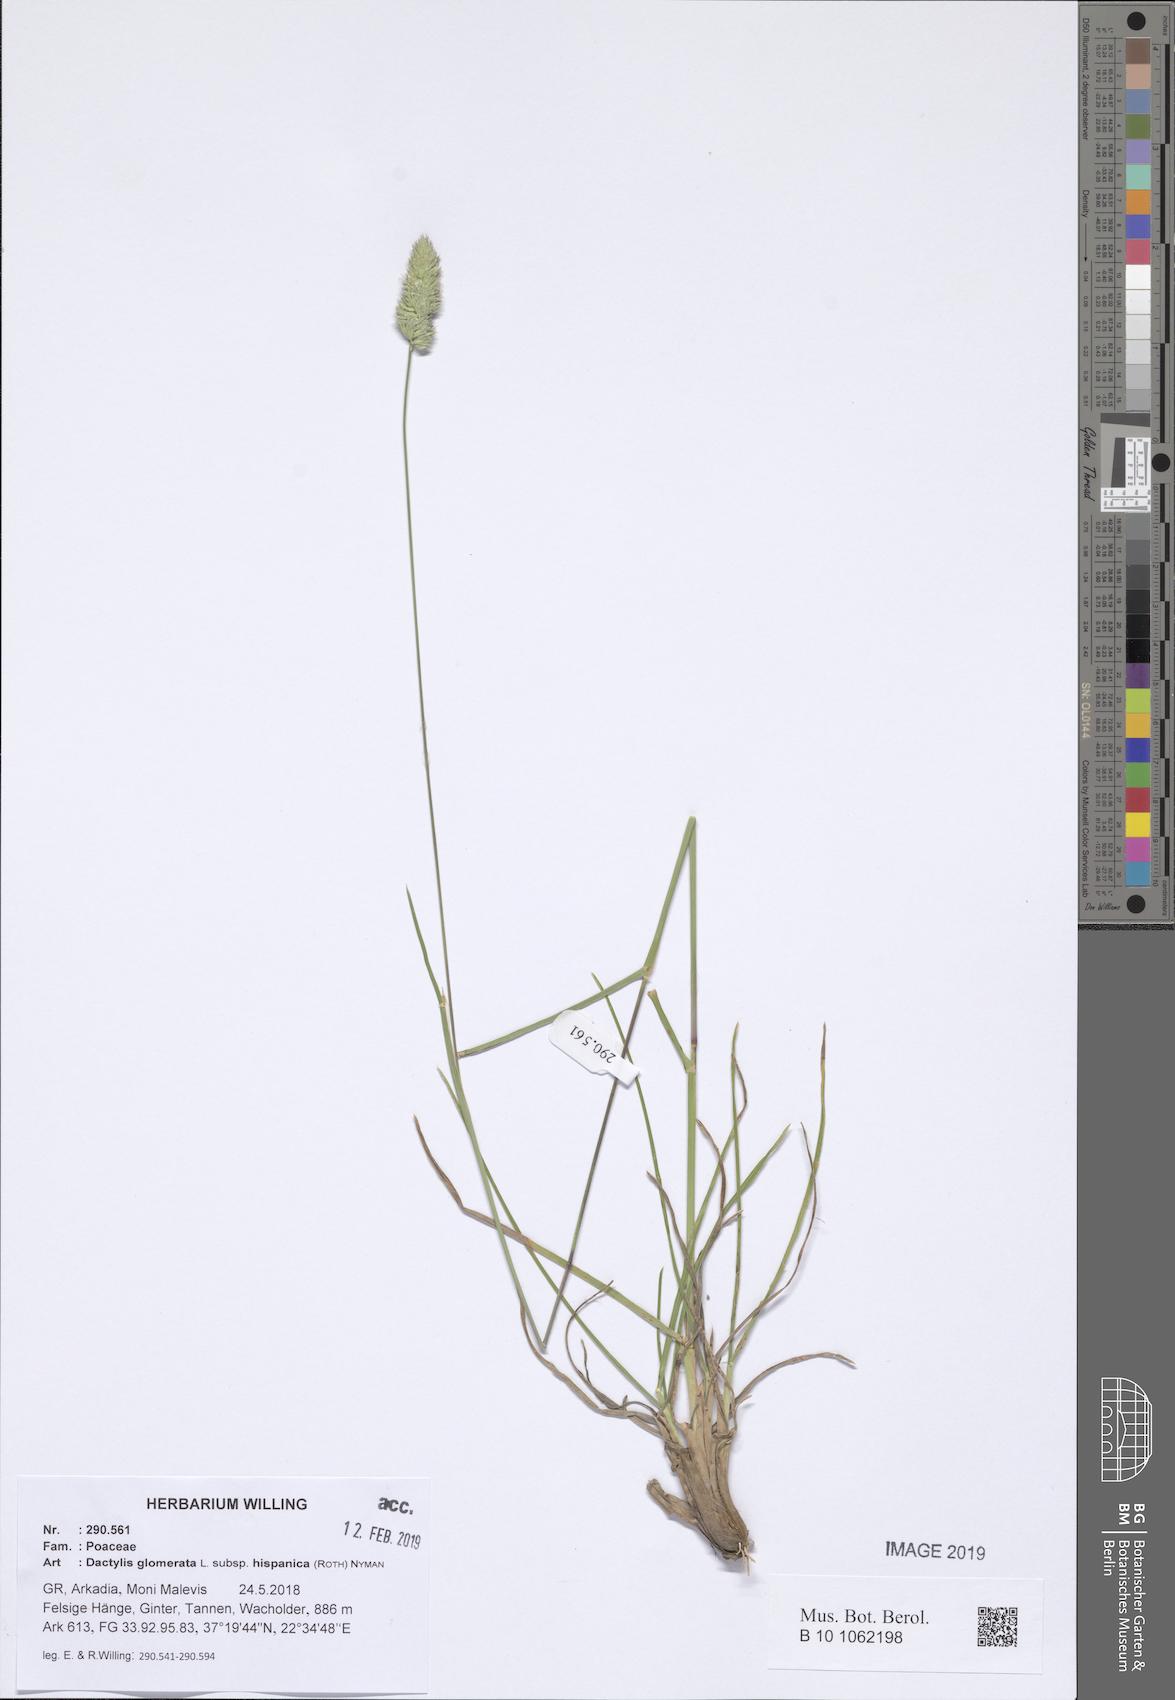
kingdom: Plantae
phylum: Tracheophyta
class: Liliopsida
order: Poales
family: Poaceae
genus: Dactylis
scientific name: Dactylis glomerata
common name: Orchardgrass
